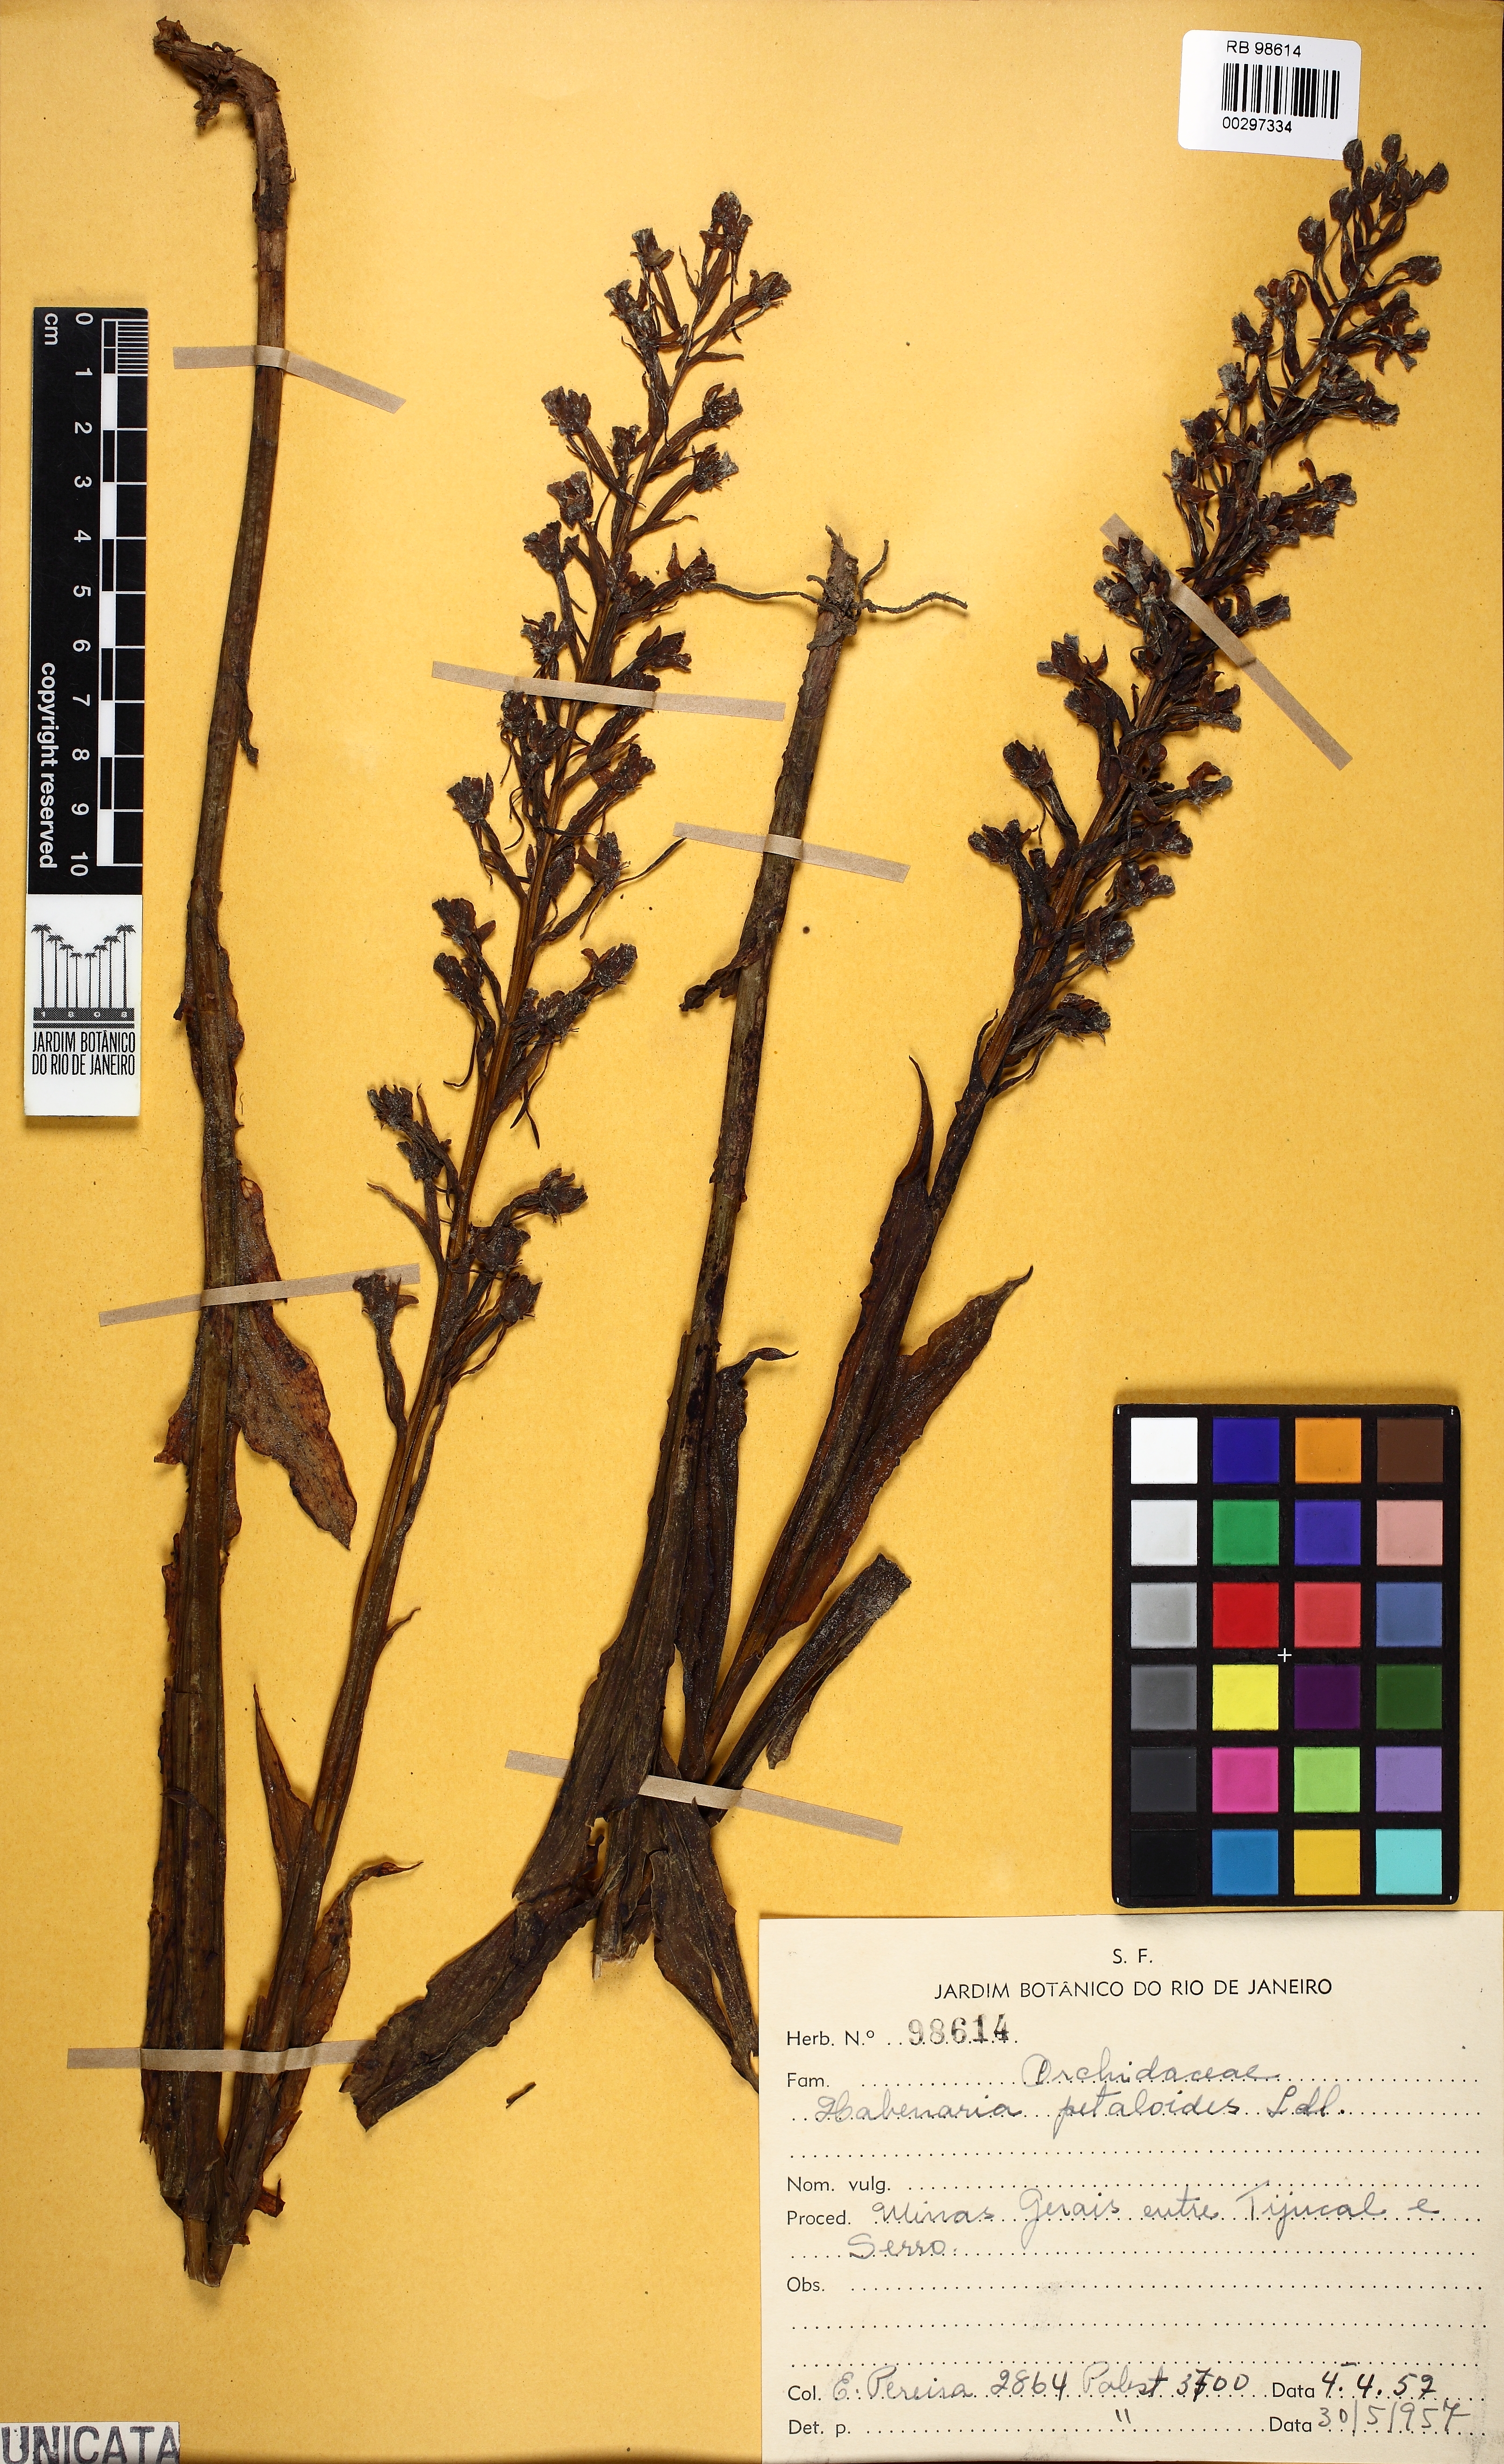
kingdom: Plantae
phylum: Tracheophyta
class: Liliopsida
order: Asparagales
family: Orchidaceae
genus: Habenaria
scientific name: Habenaria petalodes
